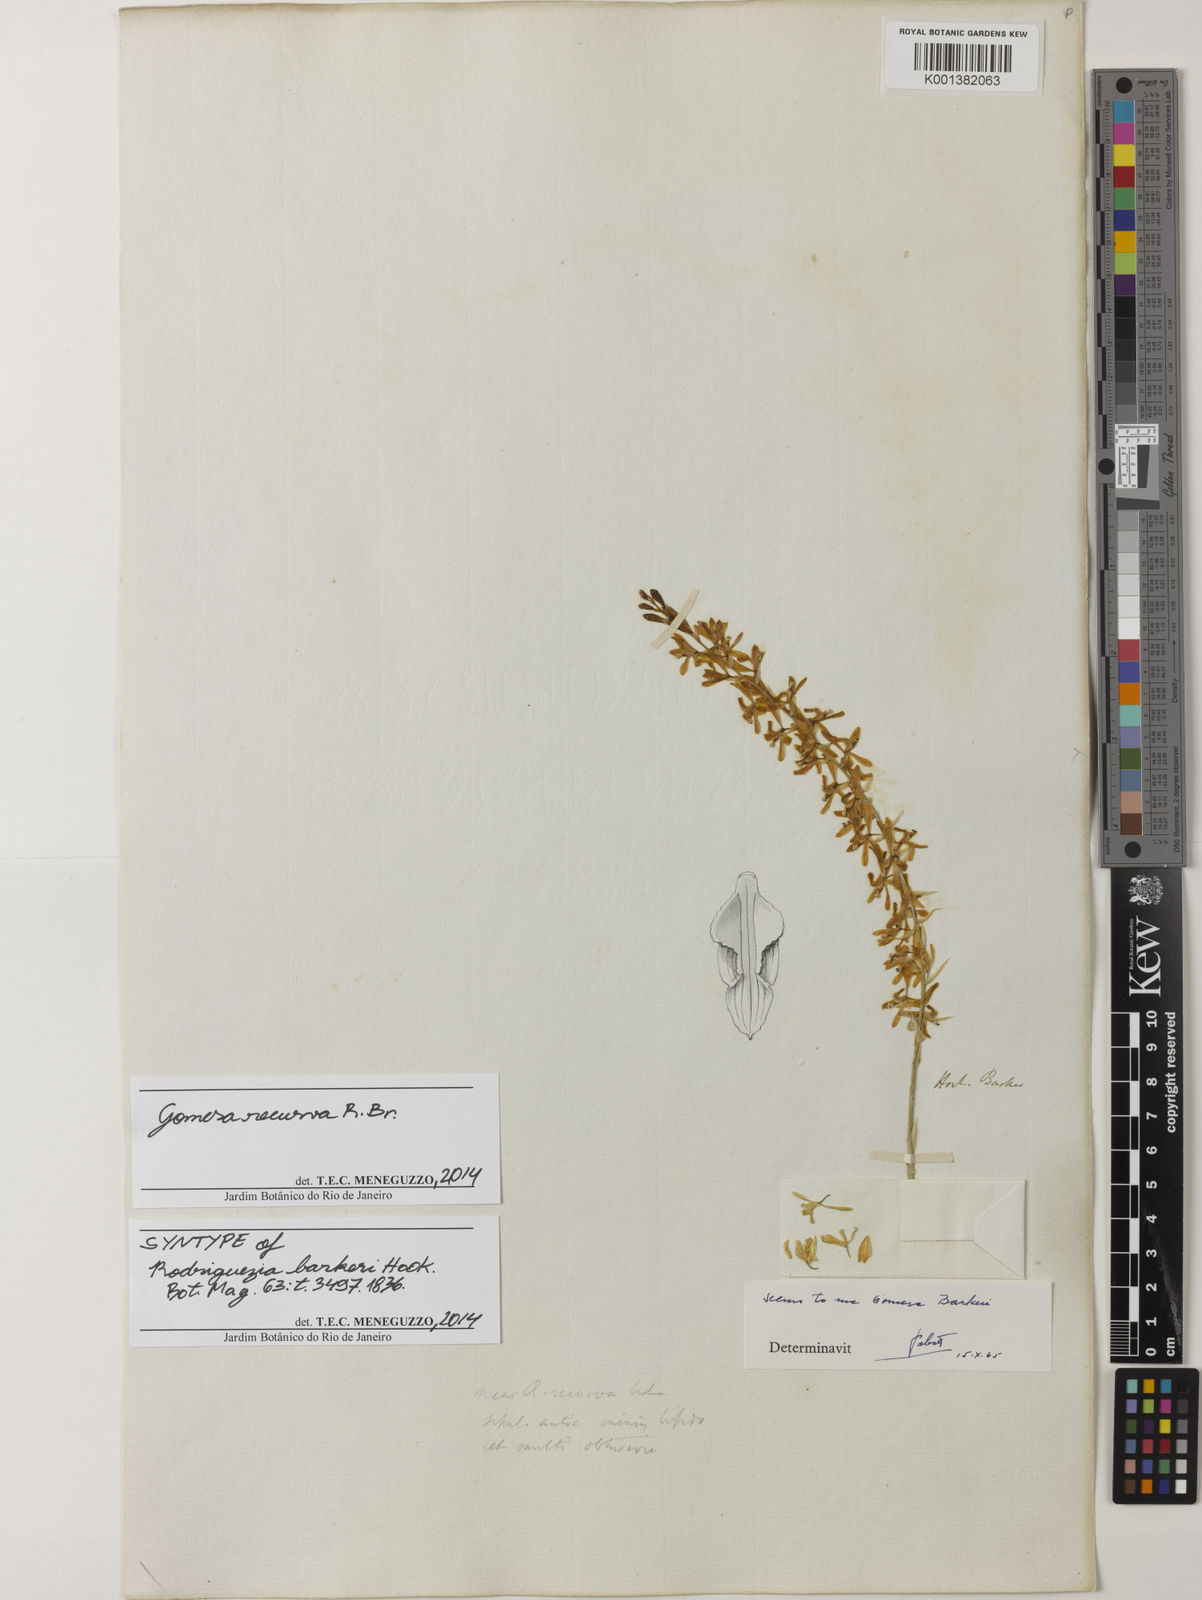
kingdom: Plantae
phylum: Tracheophyta
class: Liliopsida
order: Asparagales
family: Orchidaceae
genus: Gomesa
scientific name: Gomesa recurva
